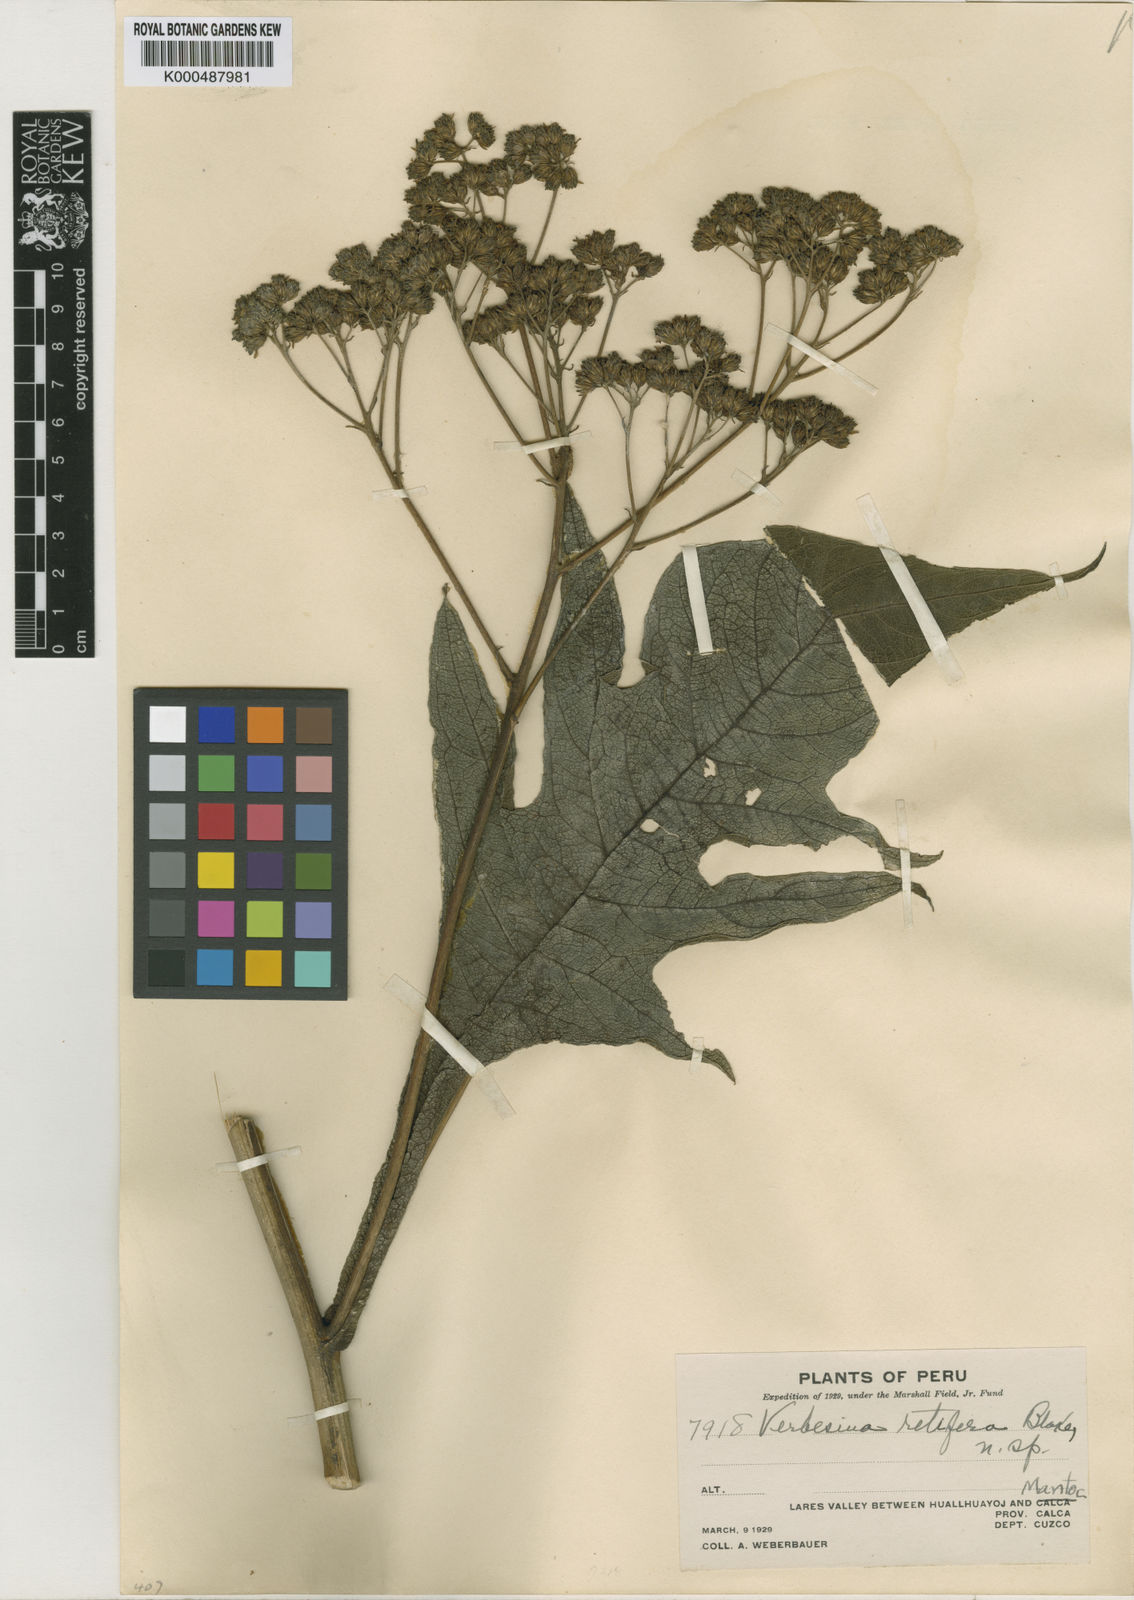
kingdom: Plantae
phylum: Tracheophyta
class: Magnoliopsida
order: Asterales
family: Asteraceae
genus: Verbesina
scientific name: Verbesina retifera
